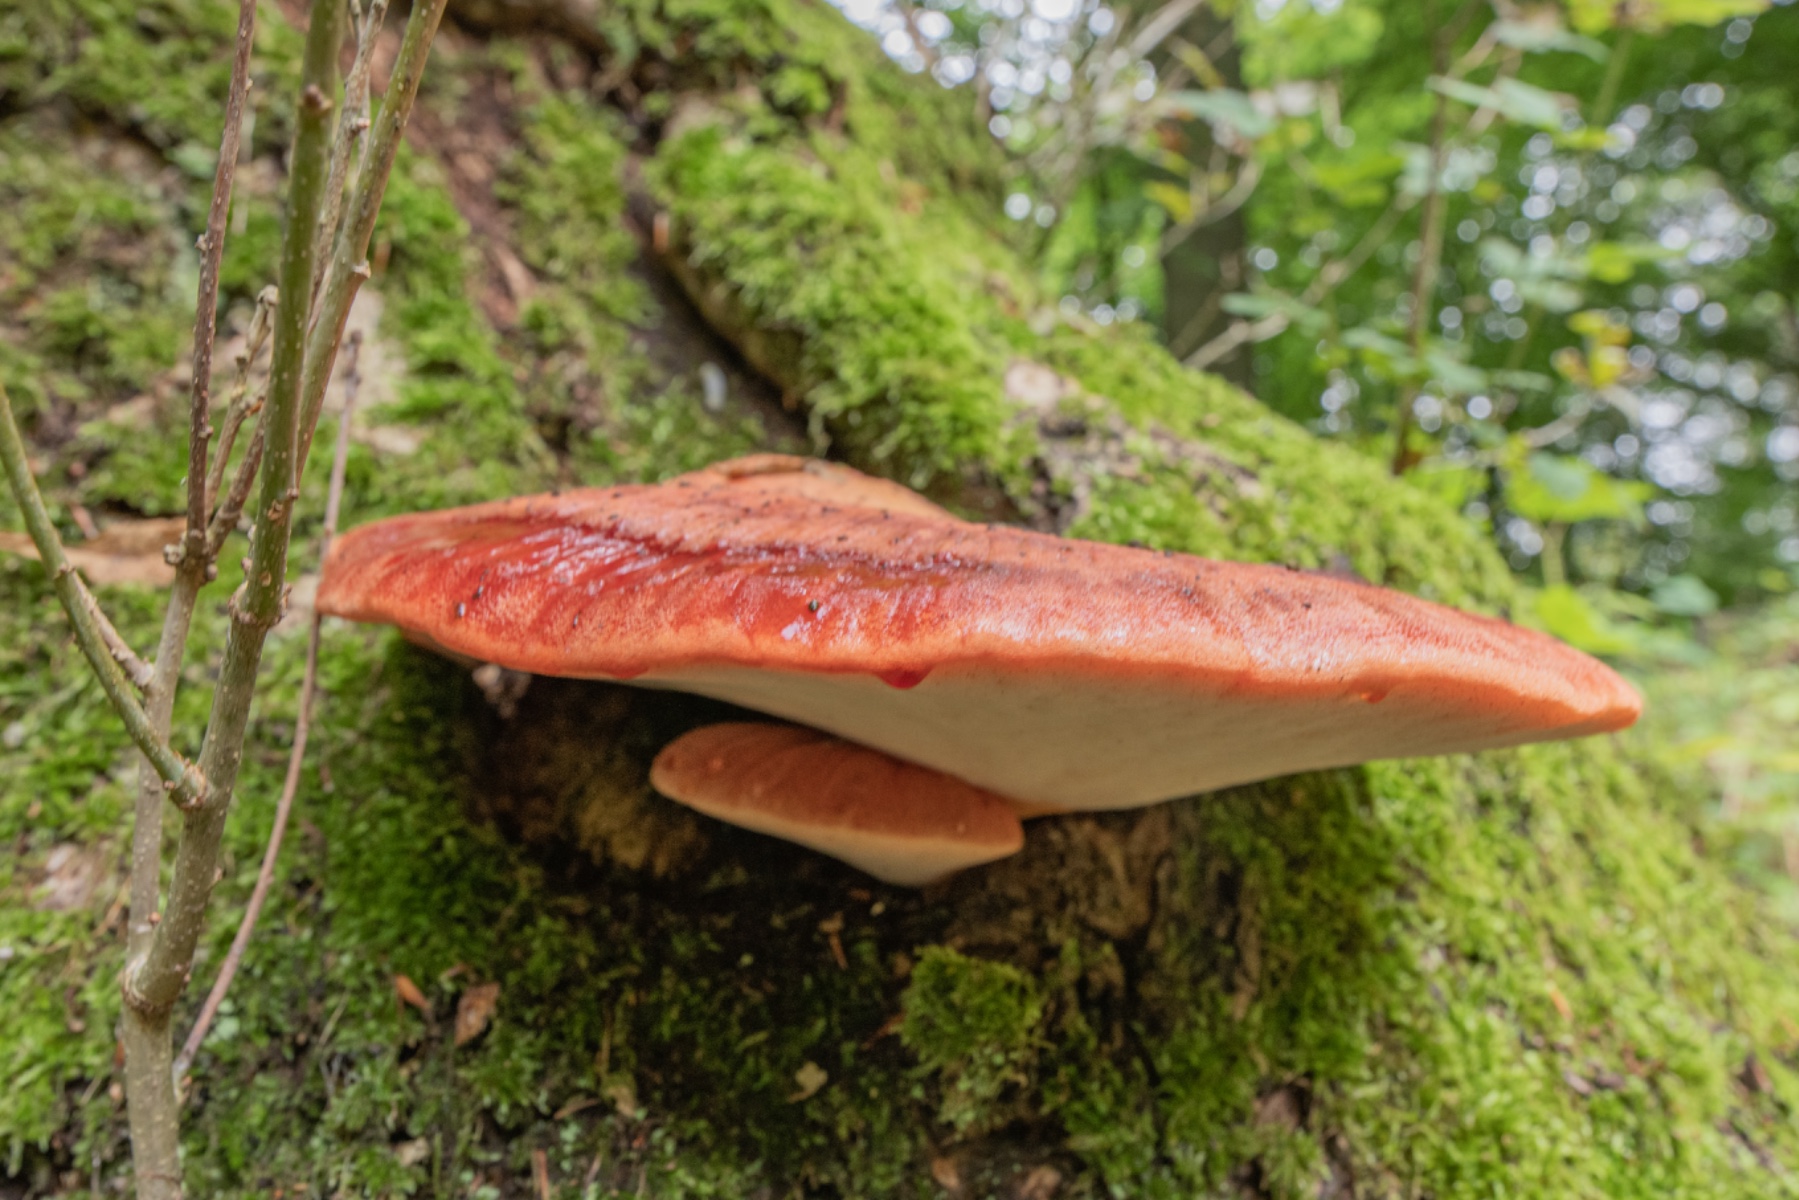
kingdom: Fungi
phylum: Basidiomycota
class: Agaricomycetes
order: Agaricales
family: Fistulinaceae
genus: Fistulina
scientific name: Fistulina hepatica
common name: oksetunge
